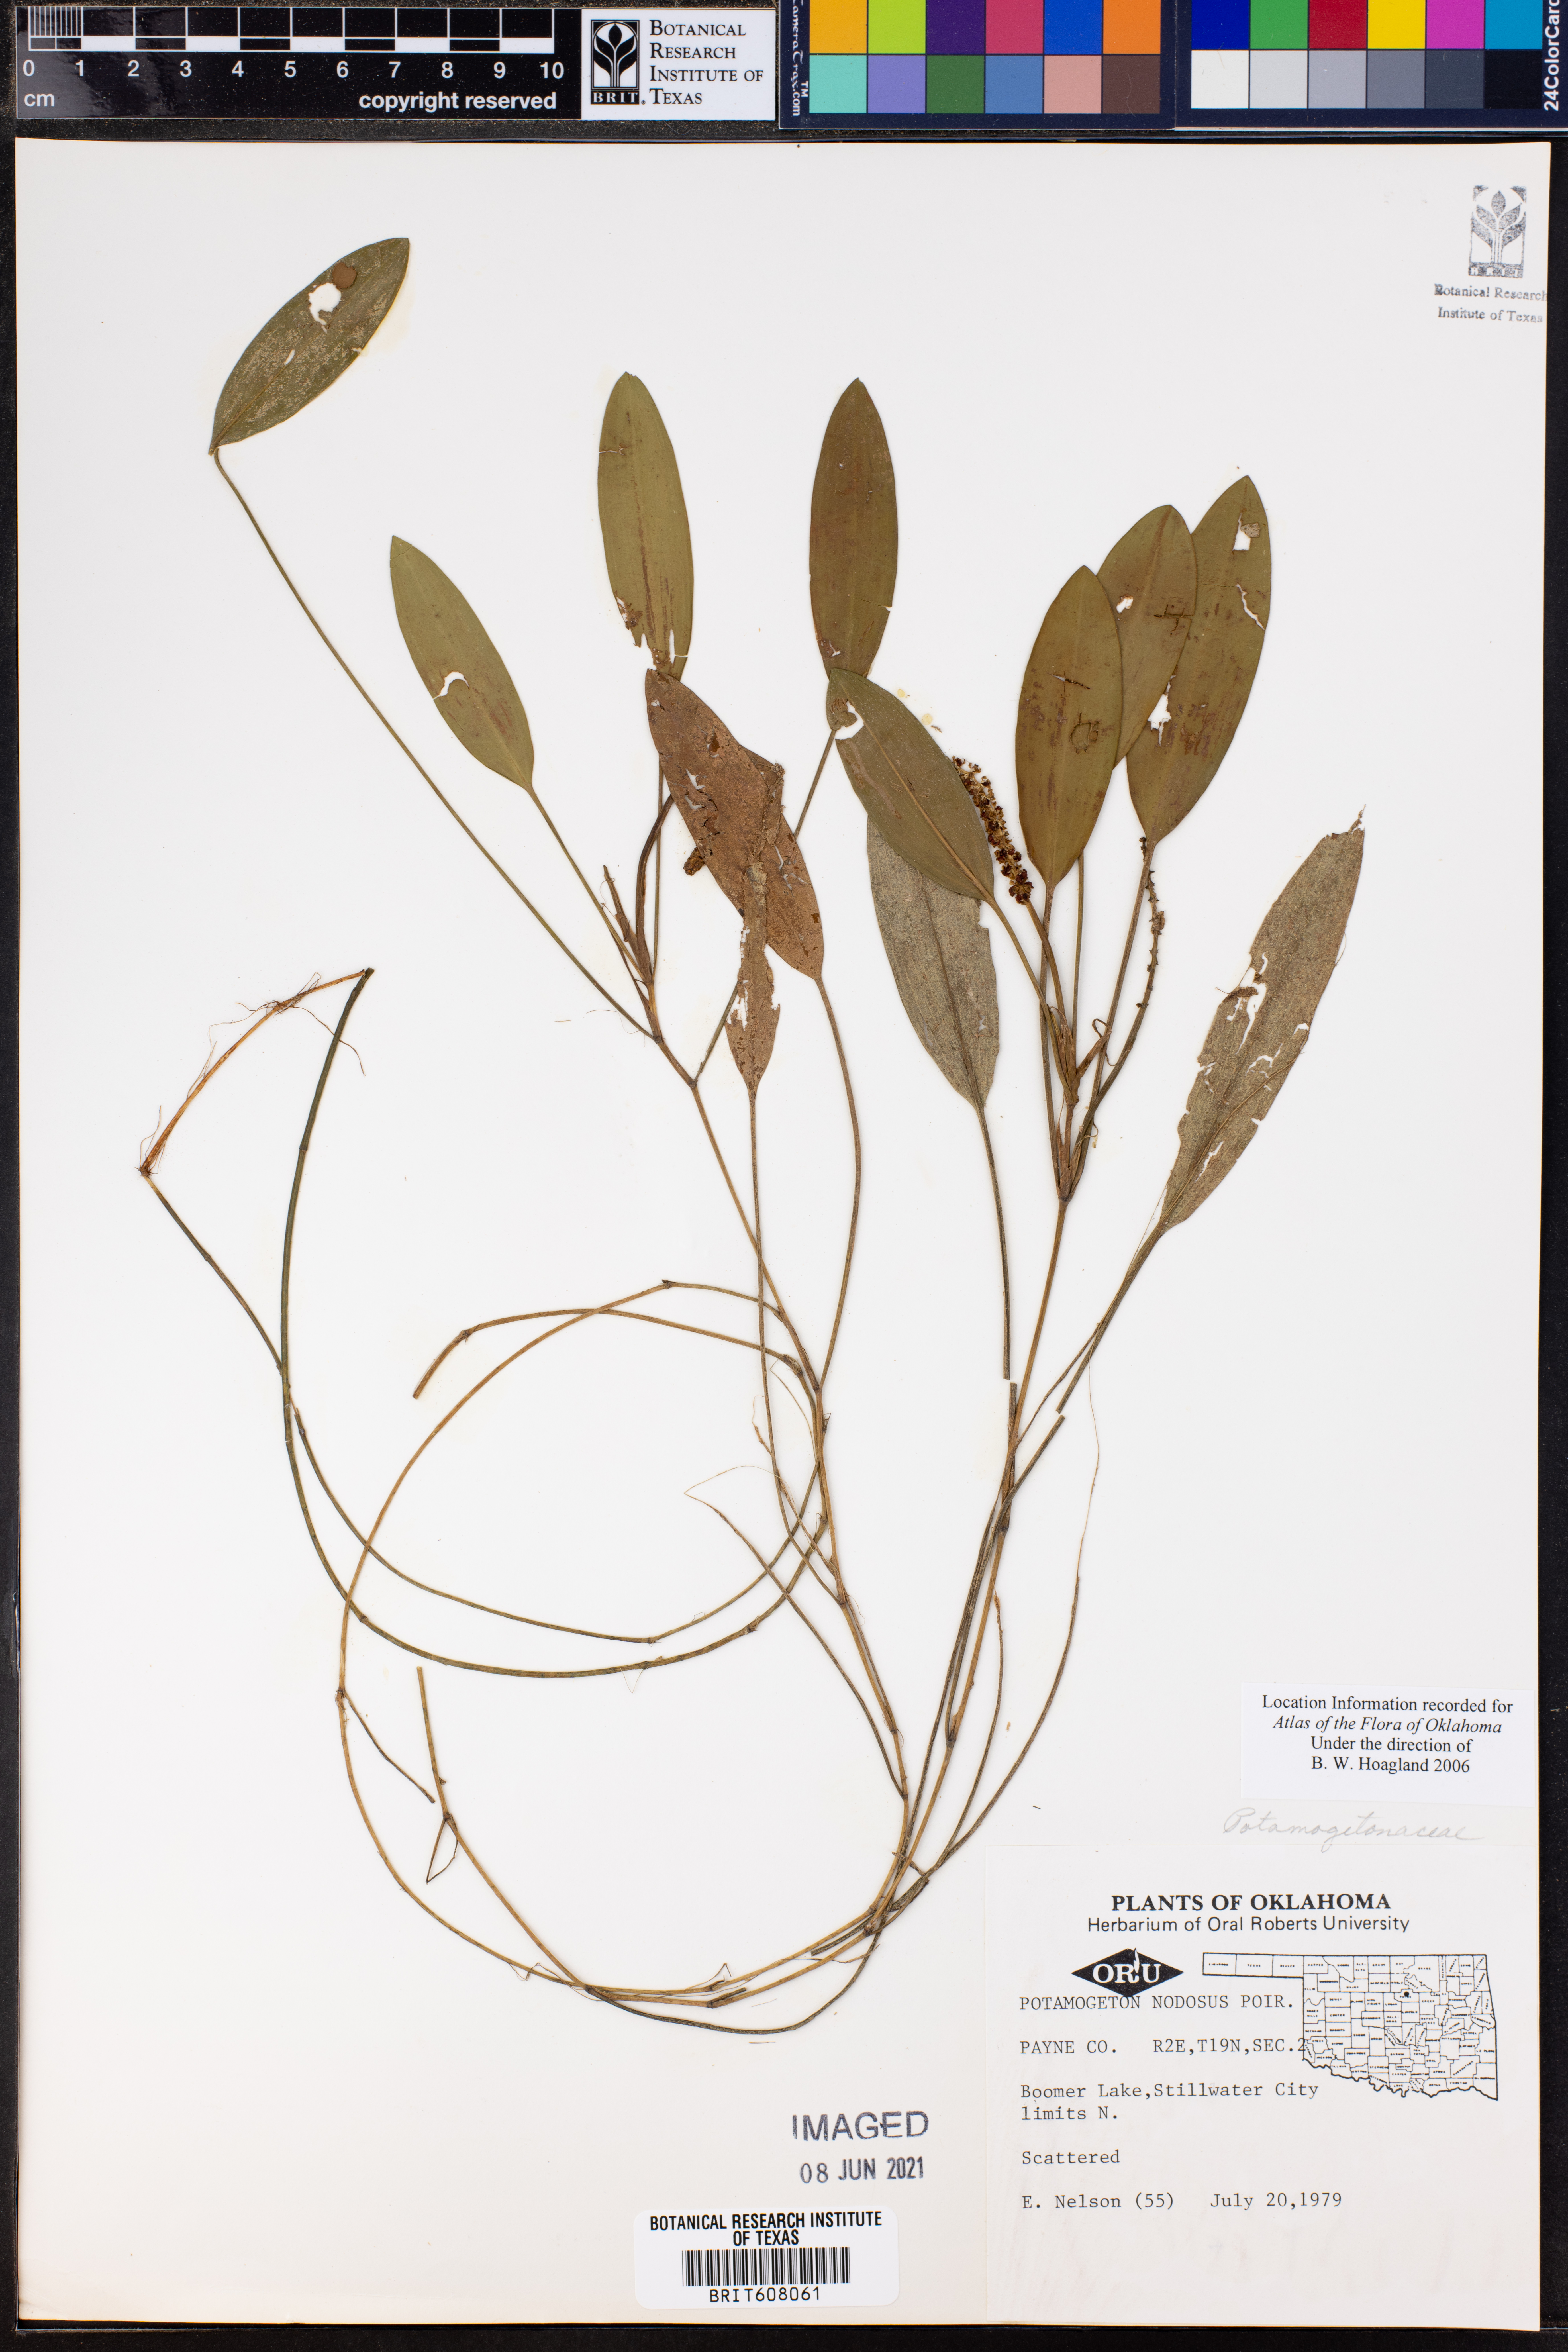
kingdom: Plantae
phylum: Tracheophyta
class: Liliopsida
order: Alismatales
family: Potamogetonaceae
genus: Potamogeton
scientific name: Potamogeton nodosus
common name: Loddon pondweed
